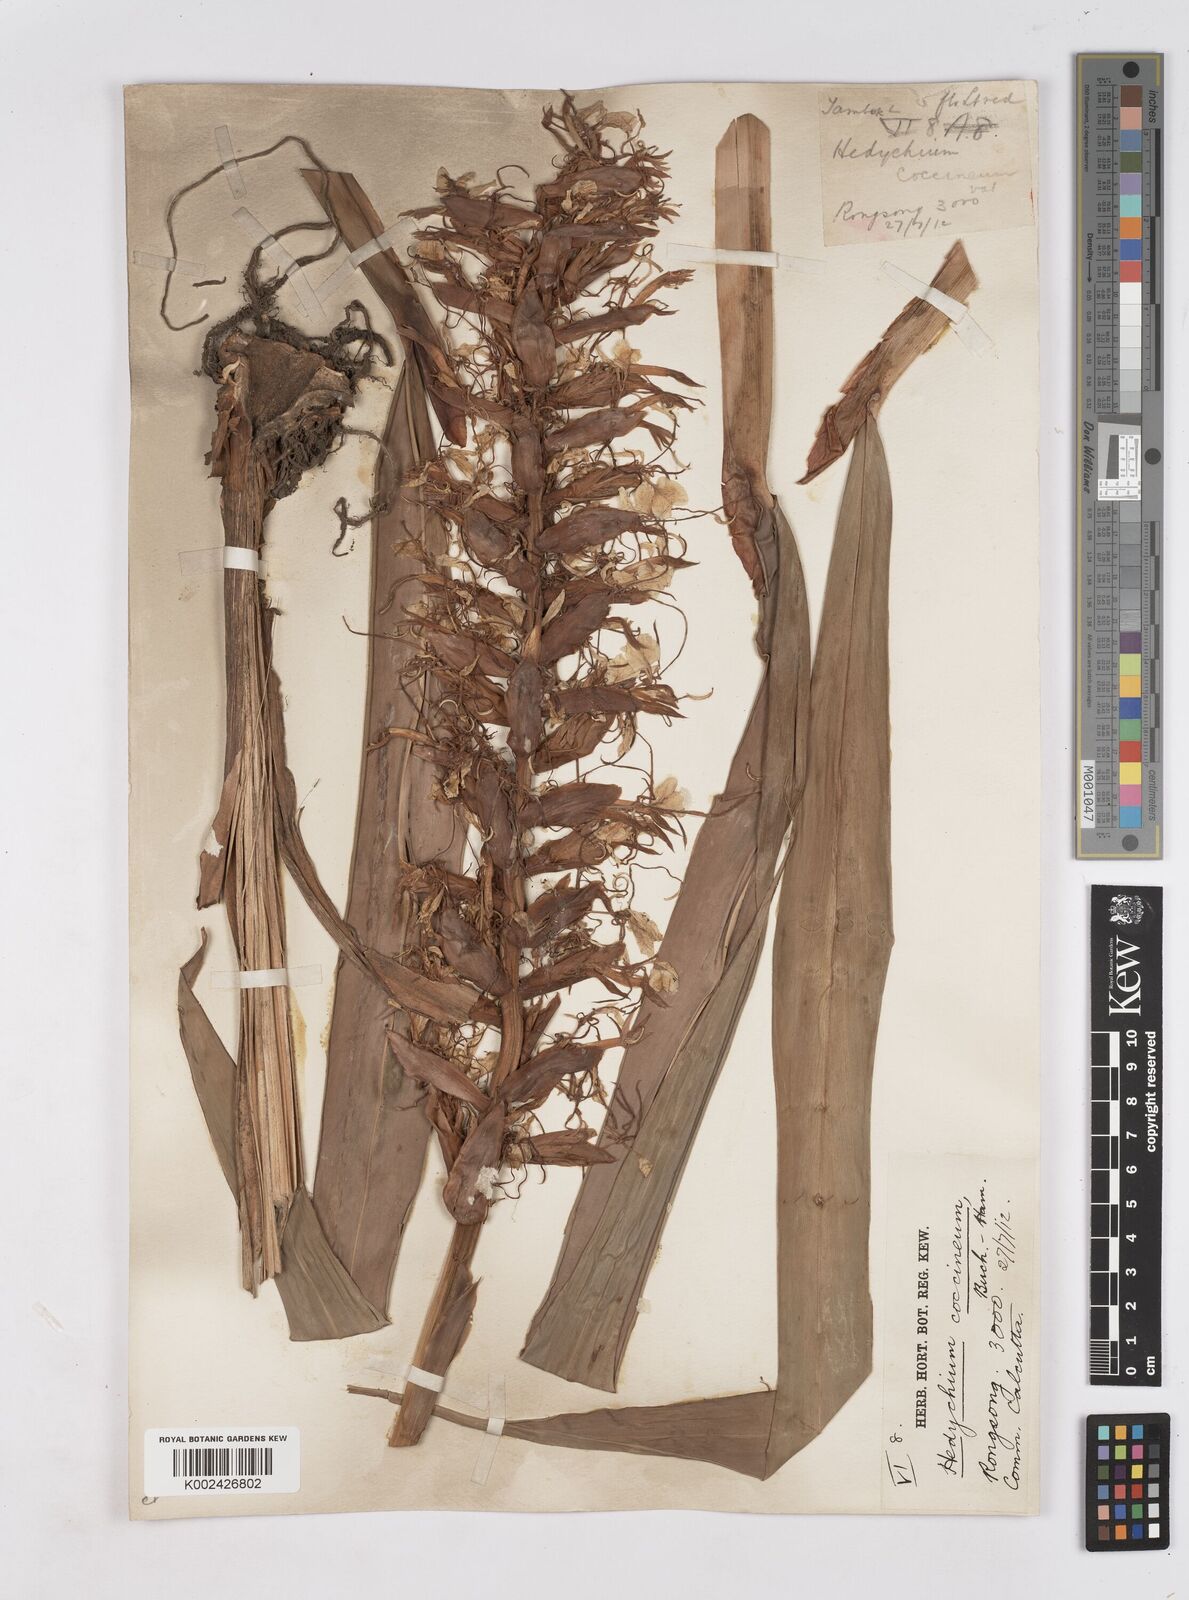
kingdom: Plantae
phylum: Tracheophyta
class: Liliopsida
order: Zingiberales
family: Zingiberaceae
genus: Hedychium
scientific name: Hedychium coccineum
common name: Red ginger-lily
